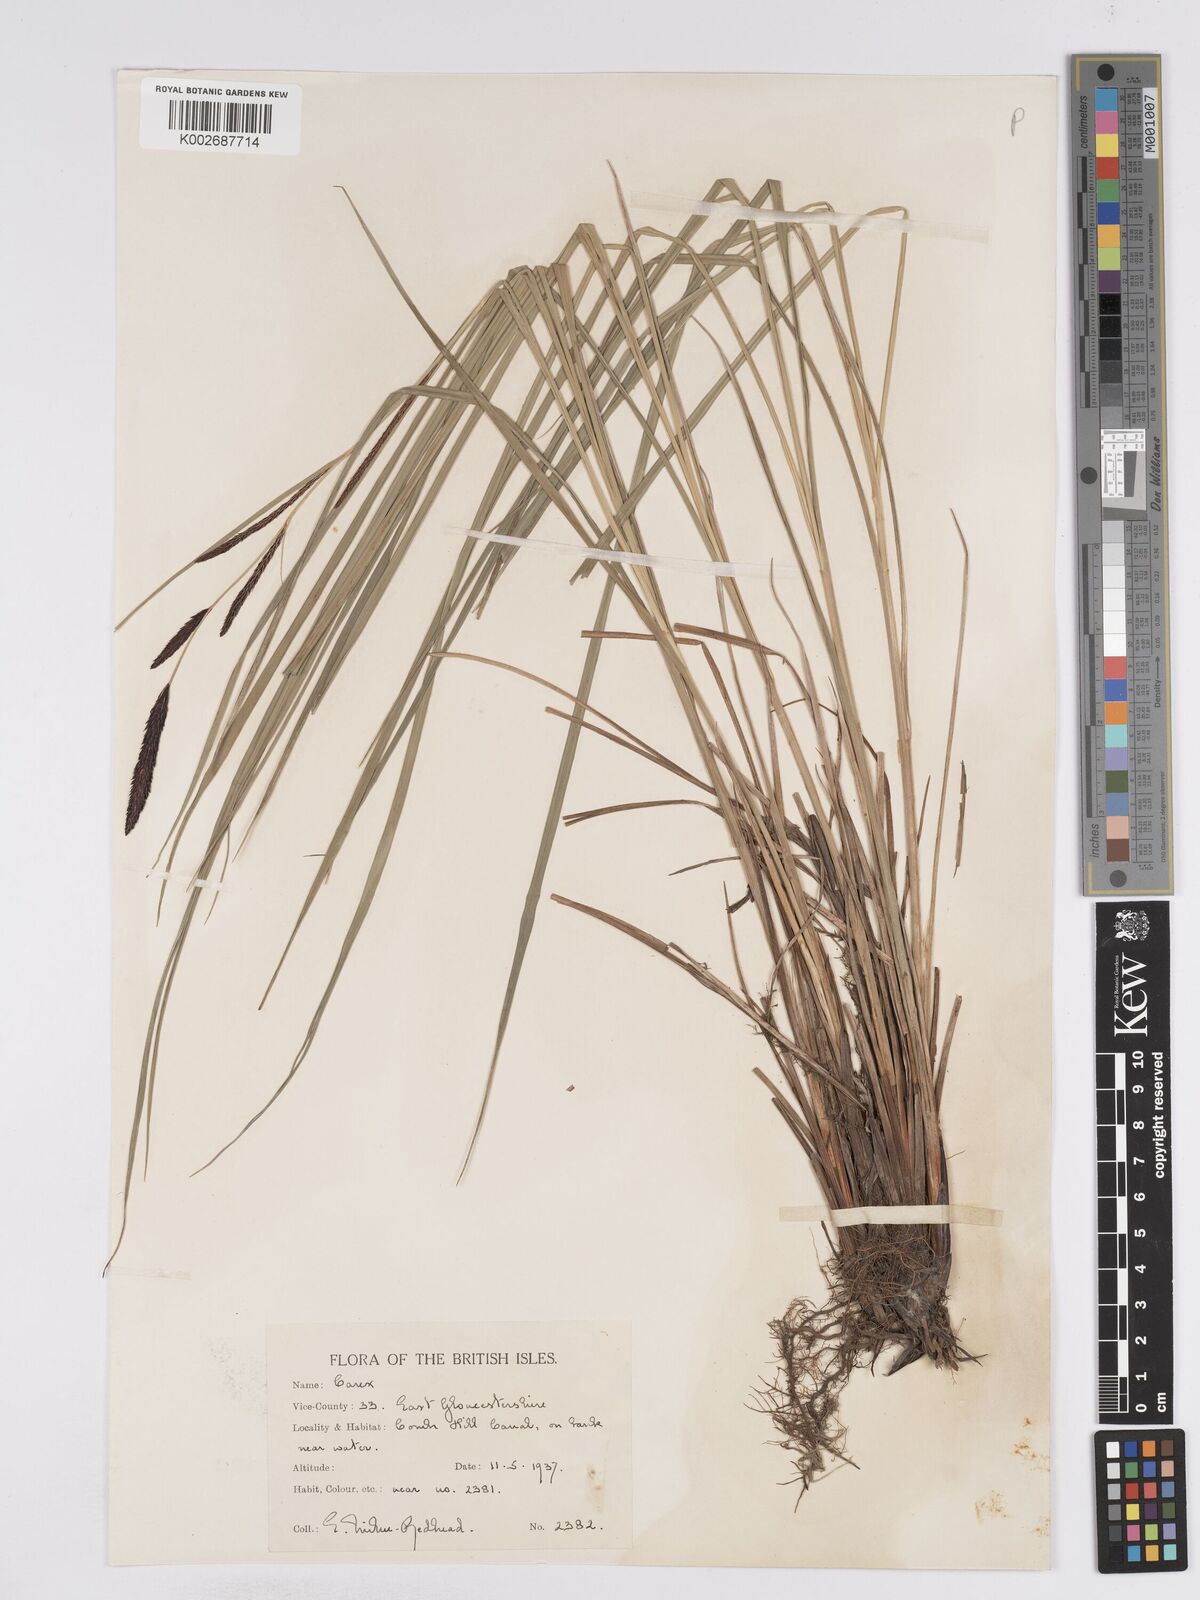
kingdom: Plantae
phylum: Tracheophyta
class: Liliopsida
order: Poales
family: Cyperaceae
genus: Carex
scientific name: Carex acuta
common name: Slender tufted-sedge
